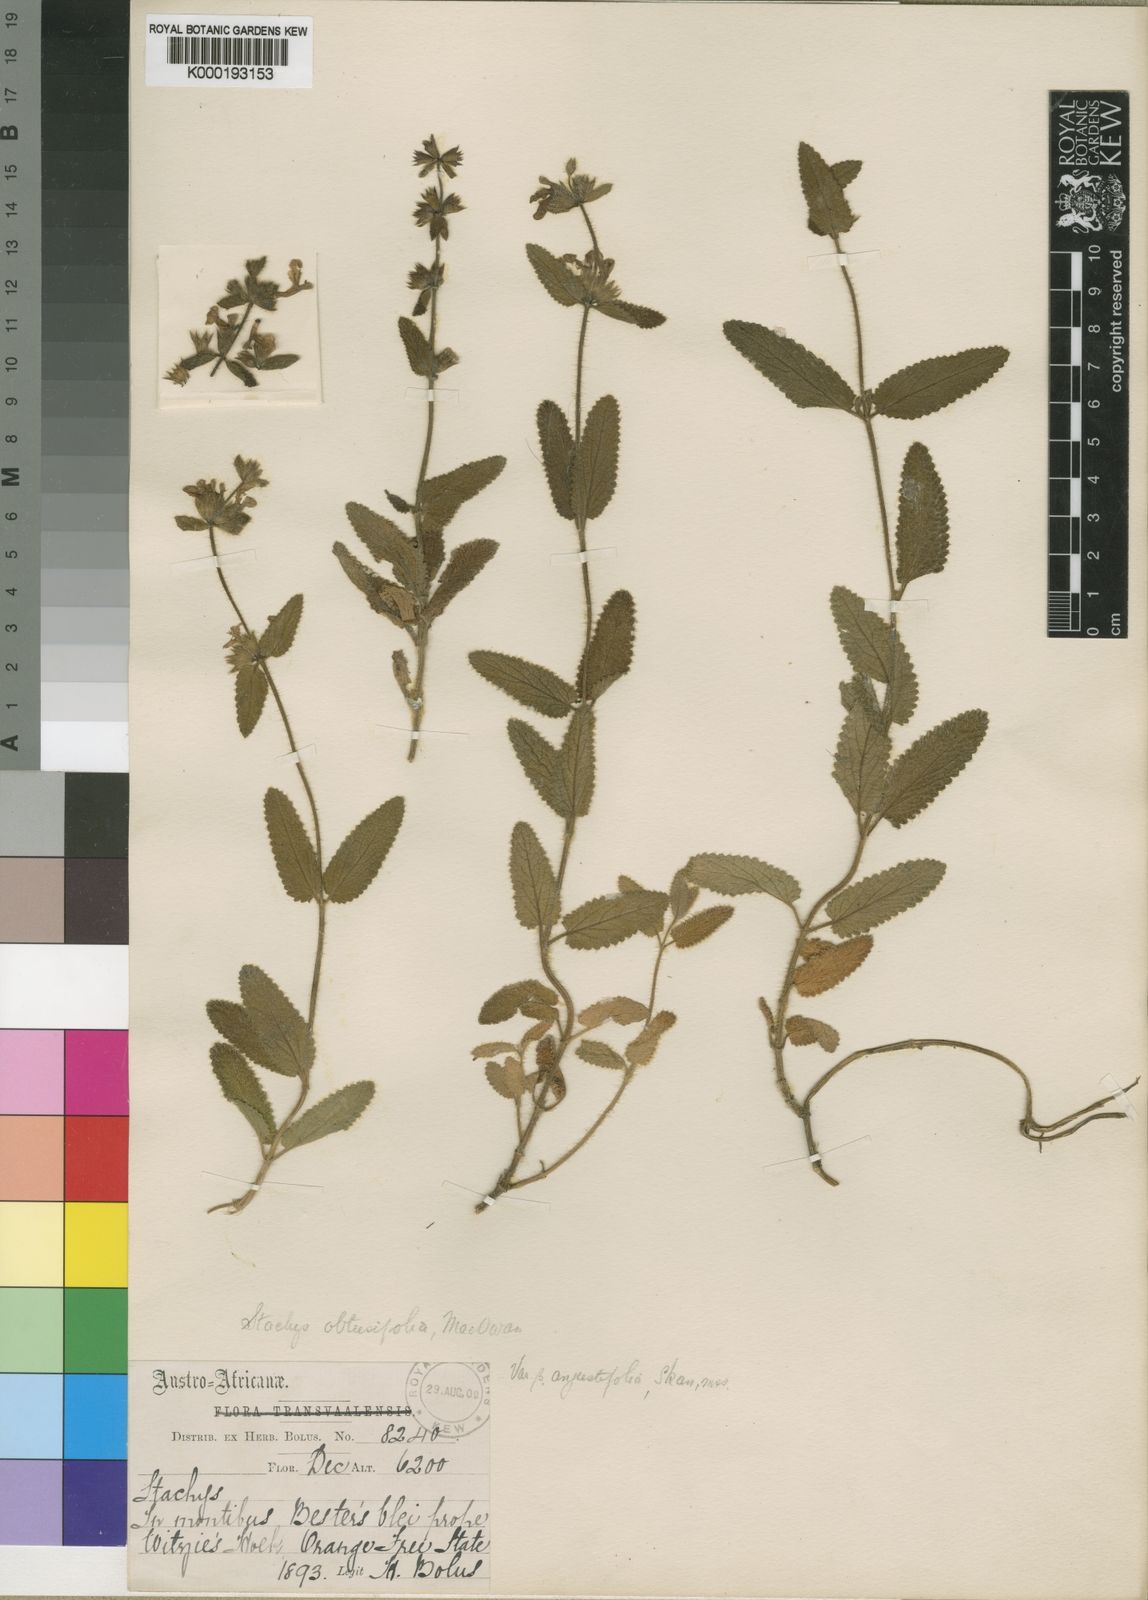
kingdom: Plantae
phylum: Tracheophyta
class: Magnoliopsida
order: Lamiales
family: Lamiaceae
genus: Stachys
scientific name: Stachys obtusifolia
